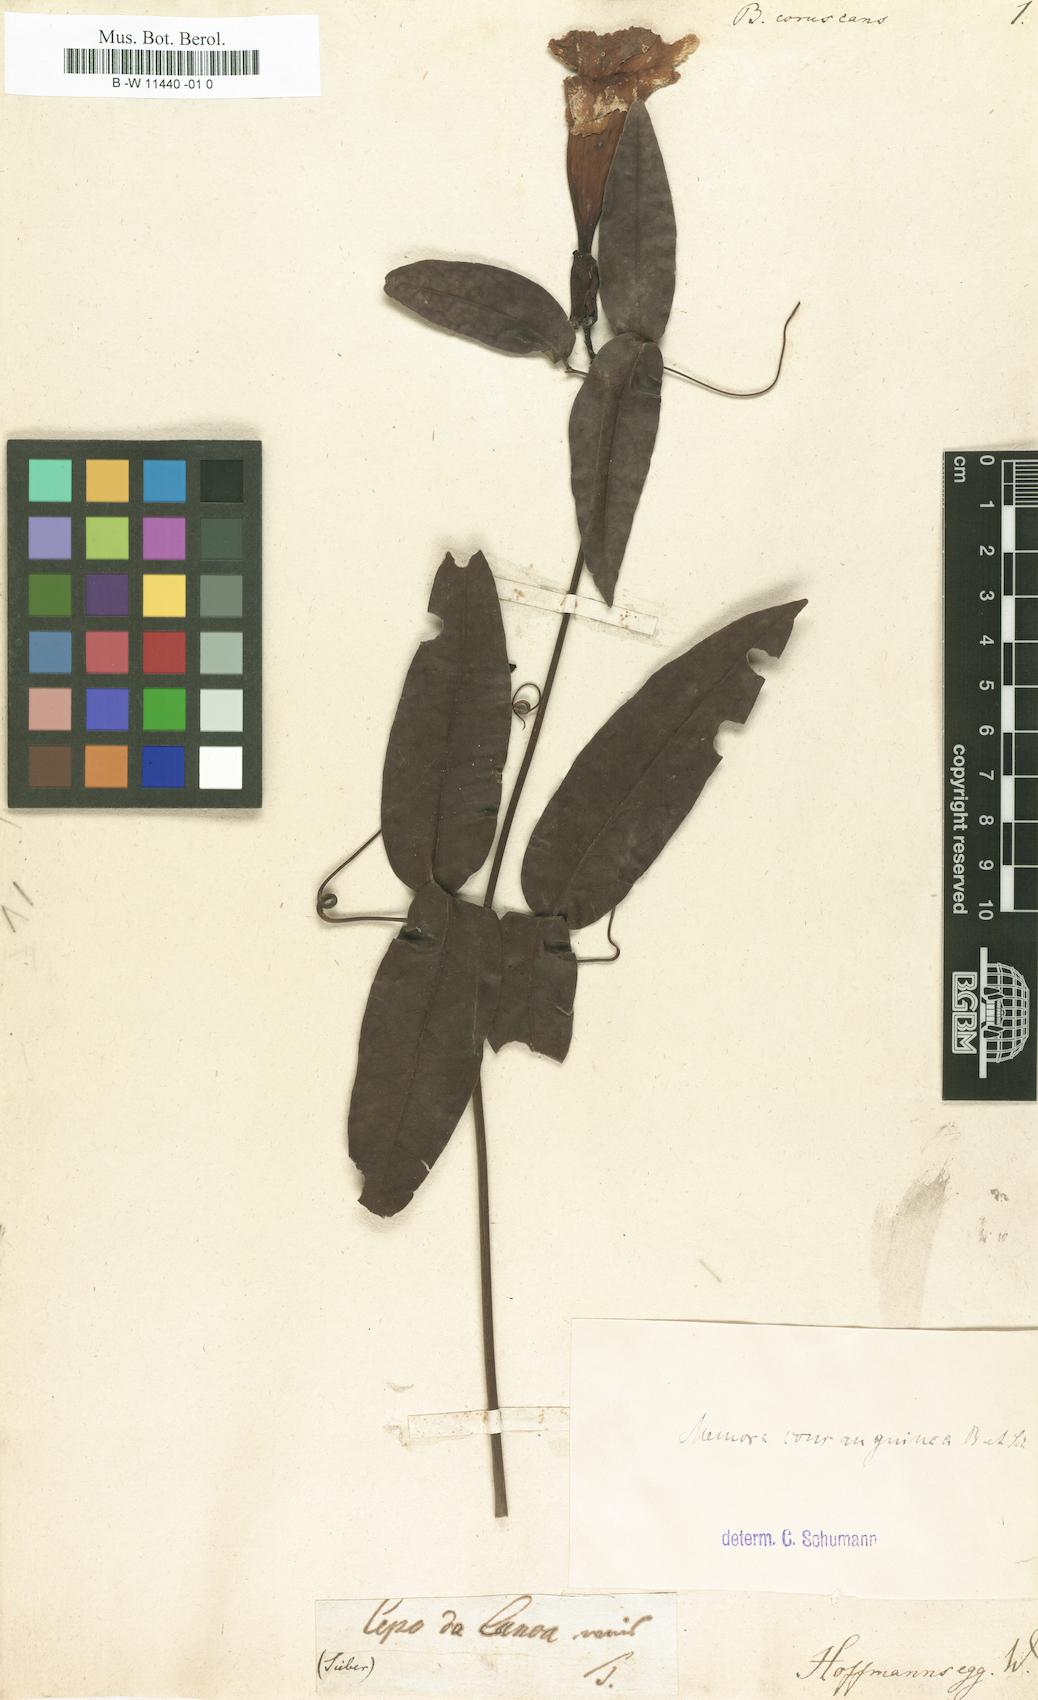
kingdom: Plantae
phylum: Tracheophyta
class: Magnoliopsida
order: Lamiales
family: Bignoniaceae
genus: Bignonia
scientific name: Bignonia
